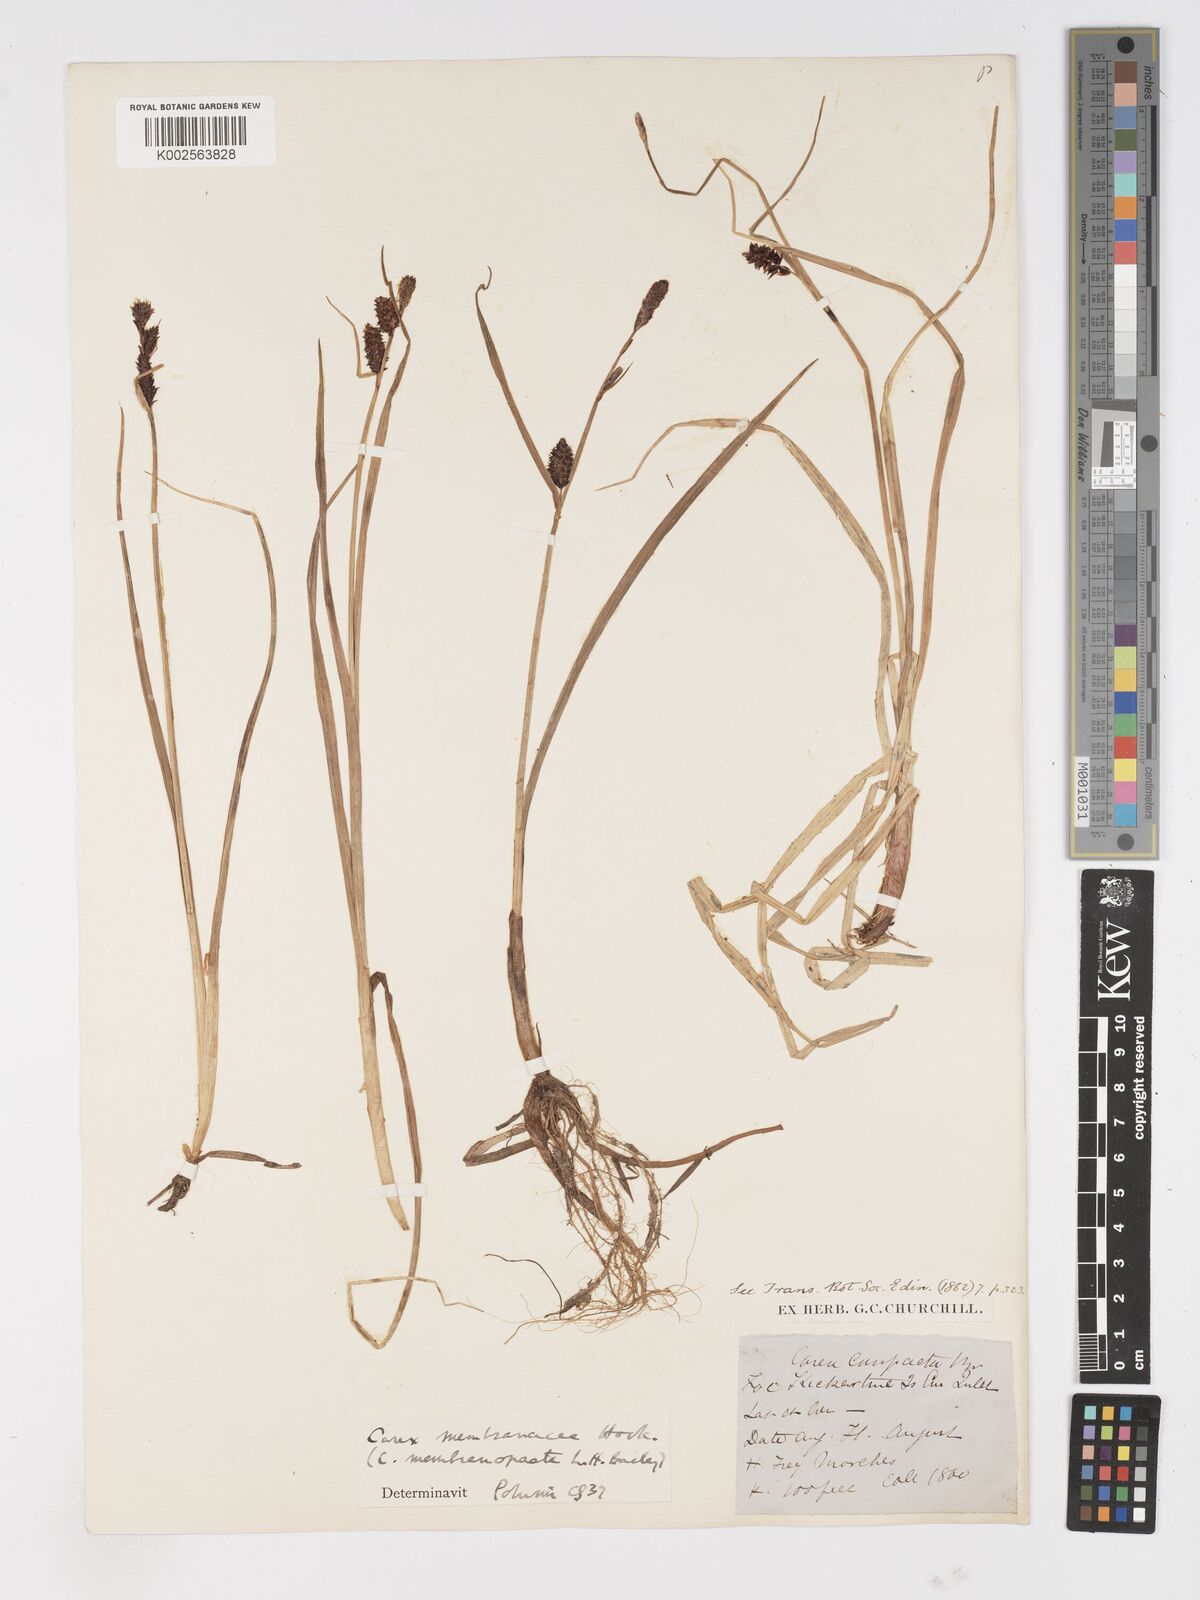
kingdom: Plantae
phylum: Tracheophyta
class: Liliopsida
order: Poales
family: Cyperaceae
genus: Carex
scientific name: Carex membranacea
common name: Fragile sedge
